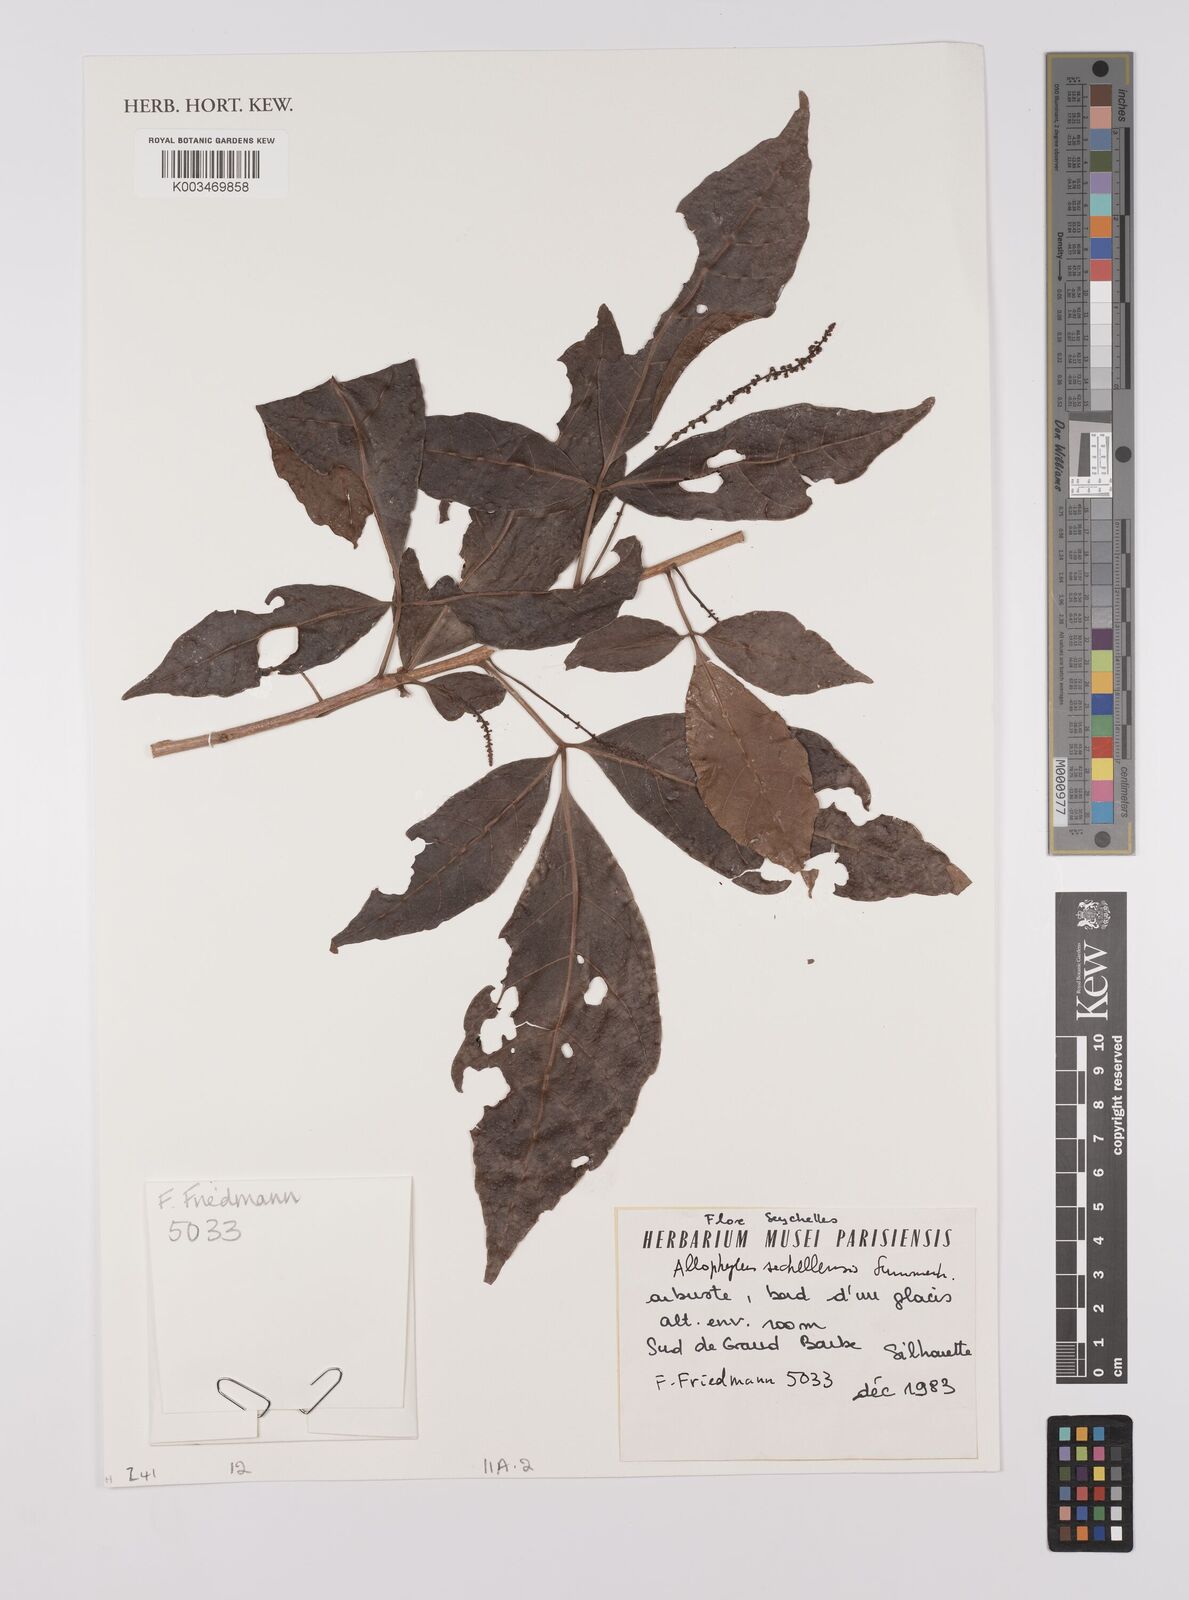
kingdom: Plantae
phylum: Tracheophyta
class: Magnoliopsida
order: Sapindales
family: Sapindaceae
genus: Allophylus
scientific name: Allophylus sechellensis
